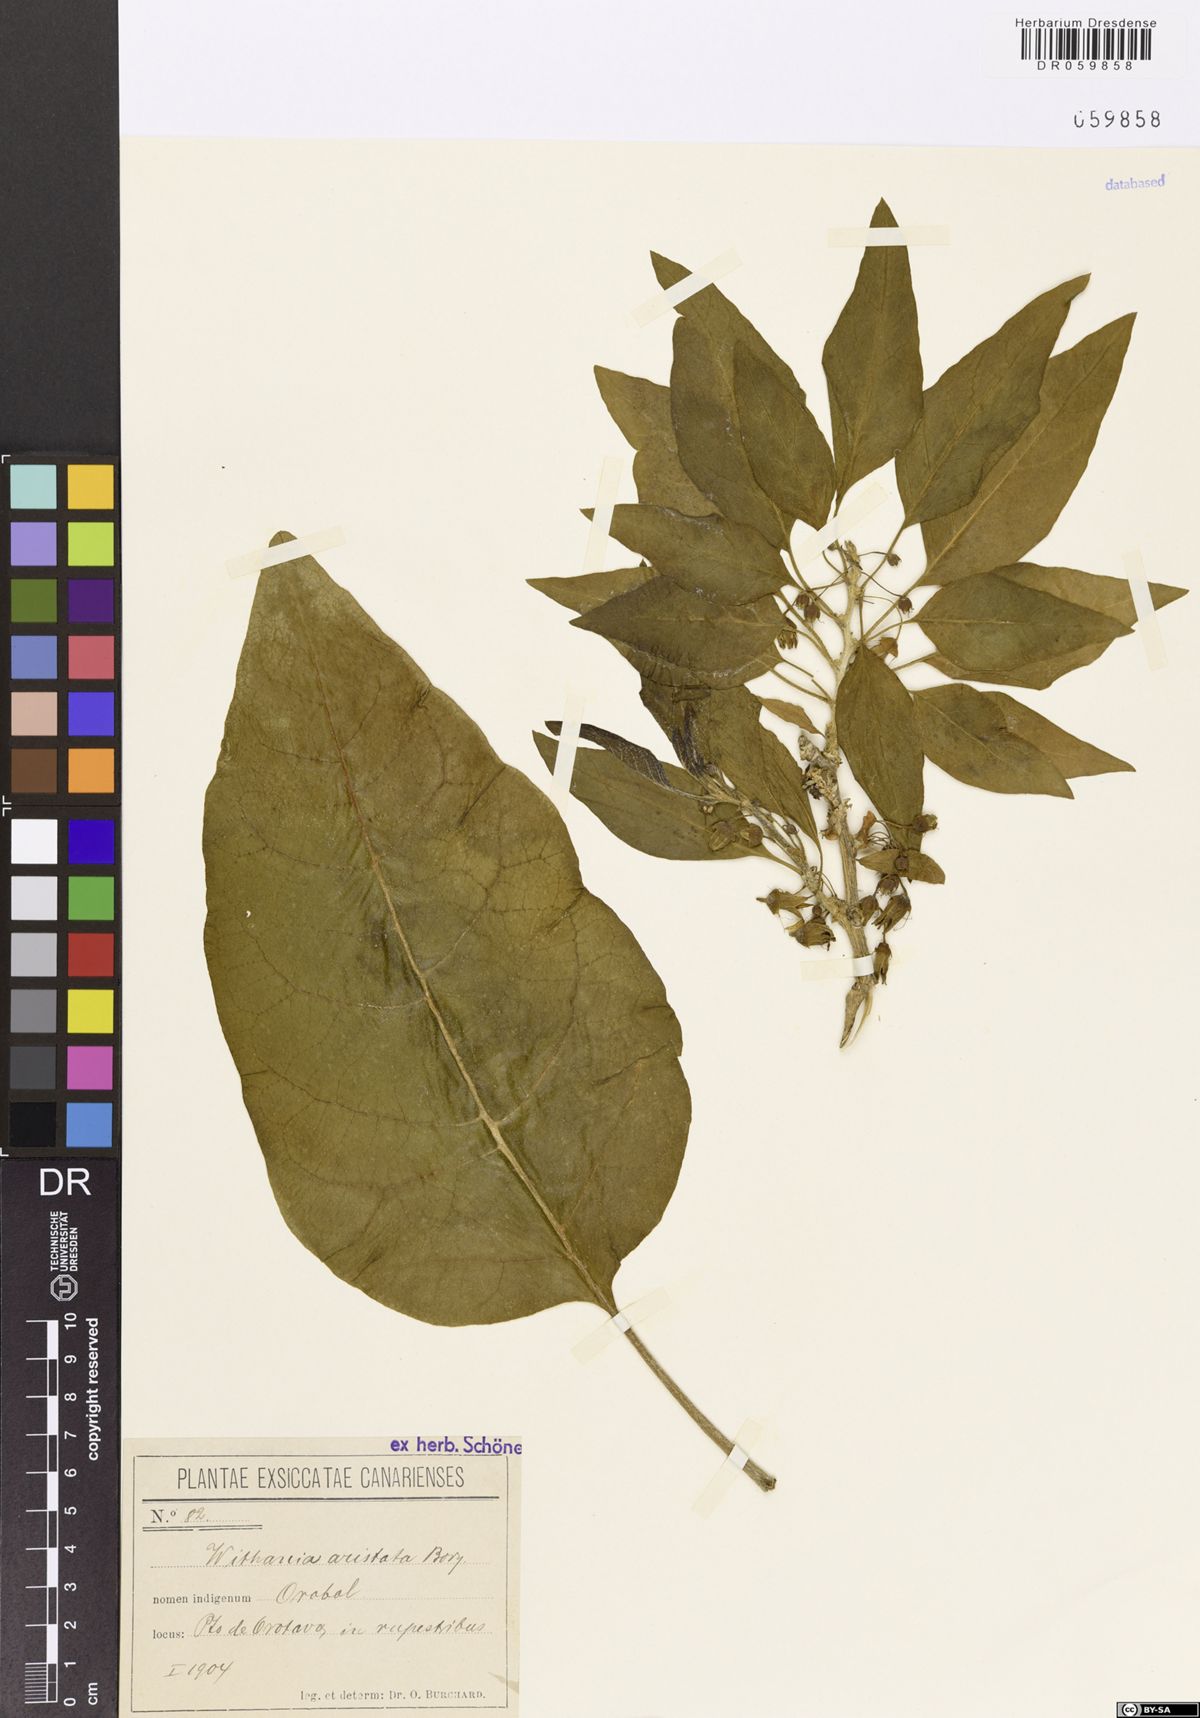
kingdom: Plantae
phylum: Tracheophyta
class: Magnoliopsida
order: Solanales
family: Solanaceae
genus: Withania
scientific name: Withania aristata
